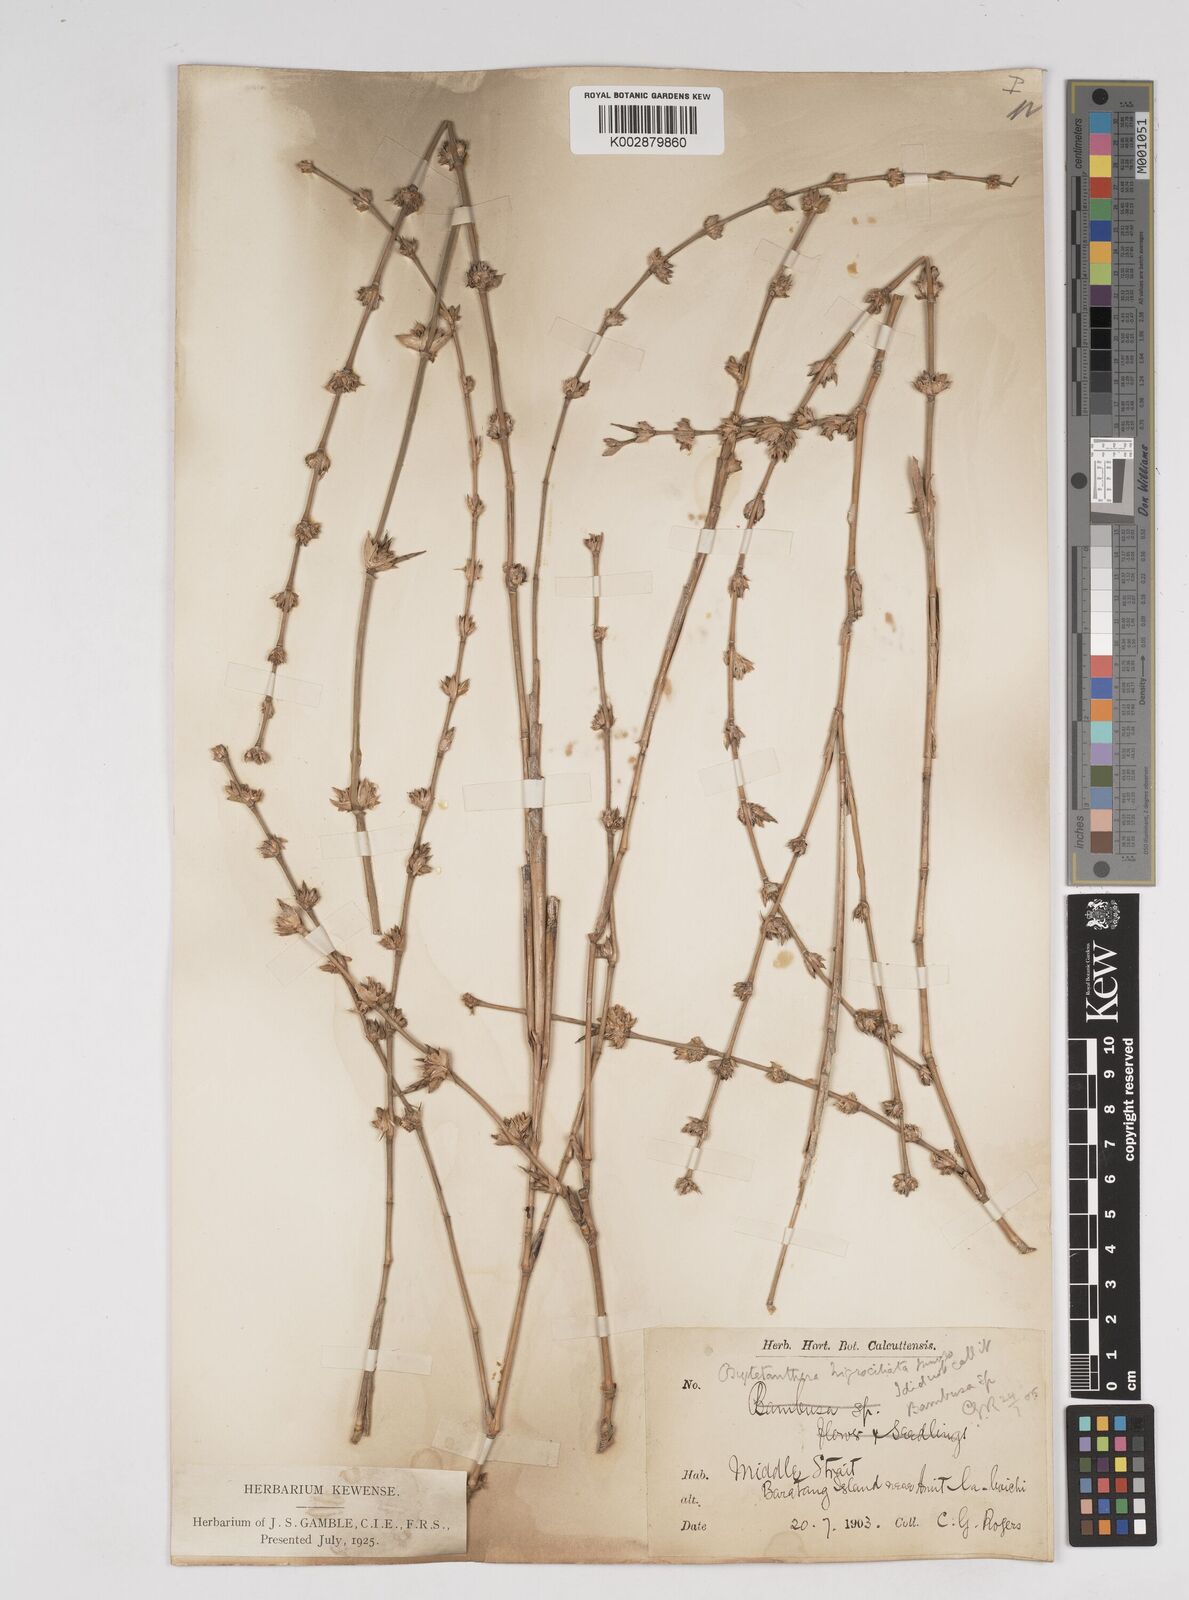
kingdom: Plantae
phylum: Tracheophyta
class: Liliopsida
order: Poales
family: Poaceae
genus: Gigantochloa
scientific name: Gigantochloa
